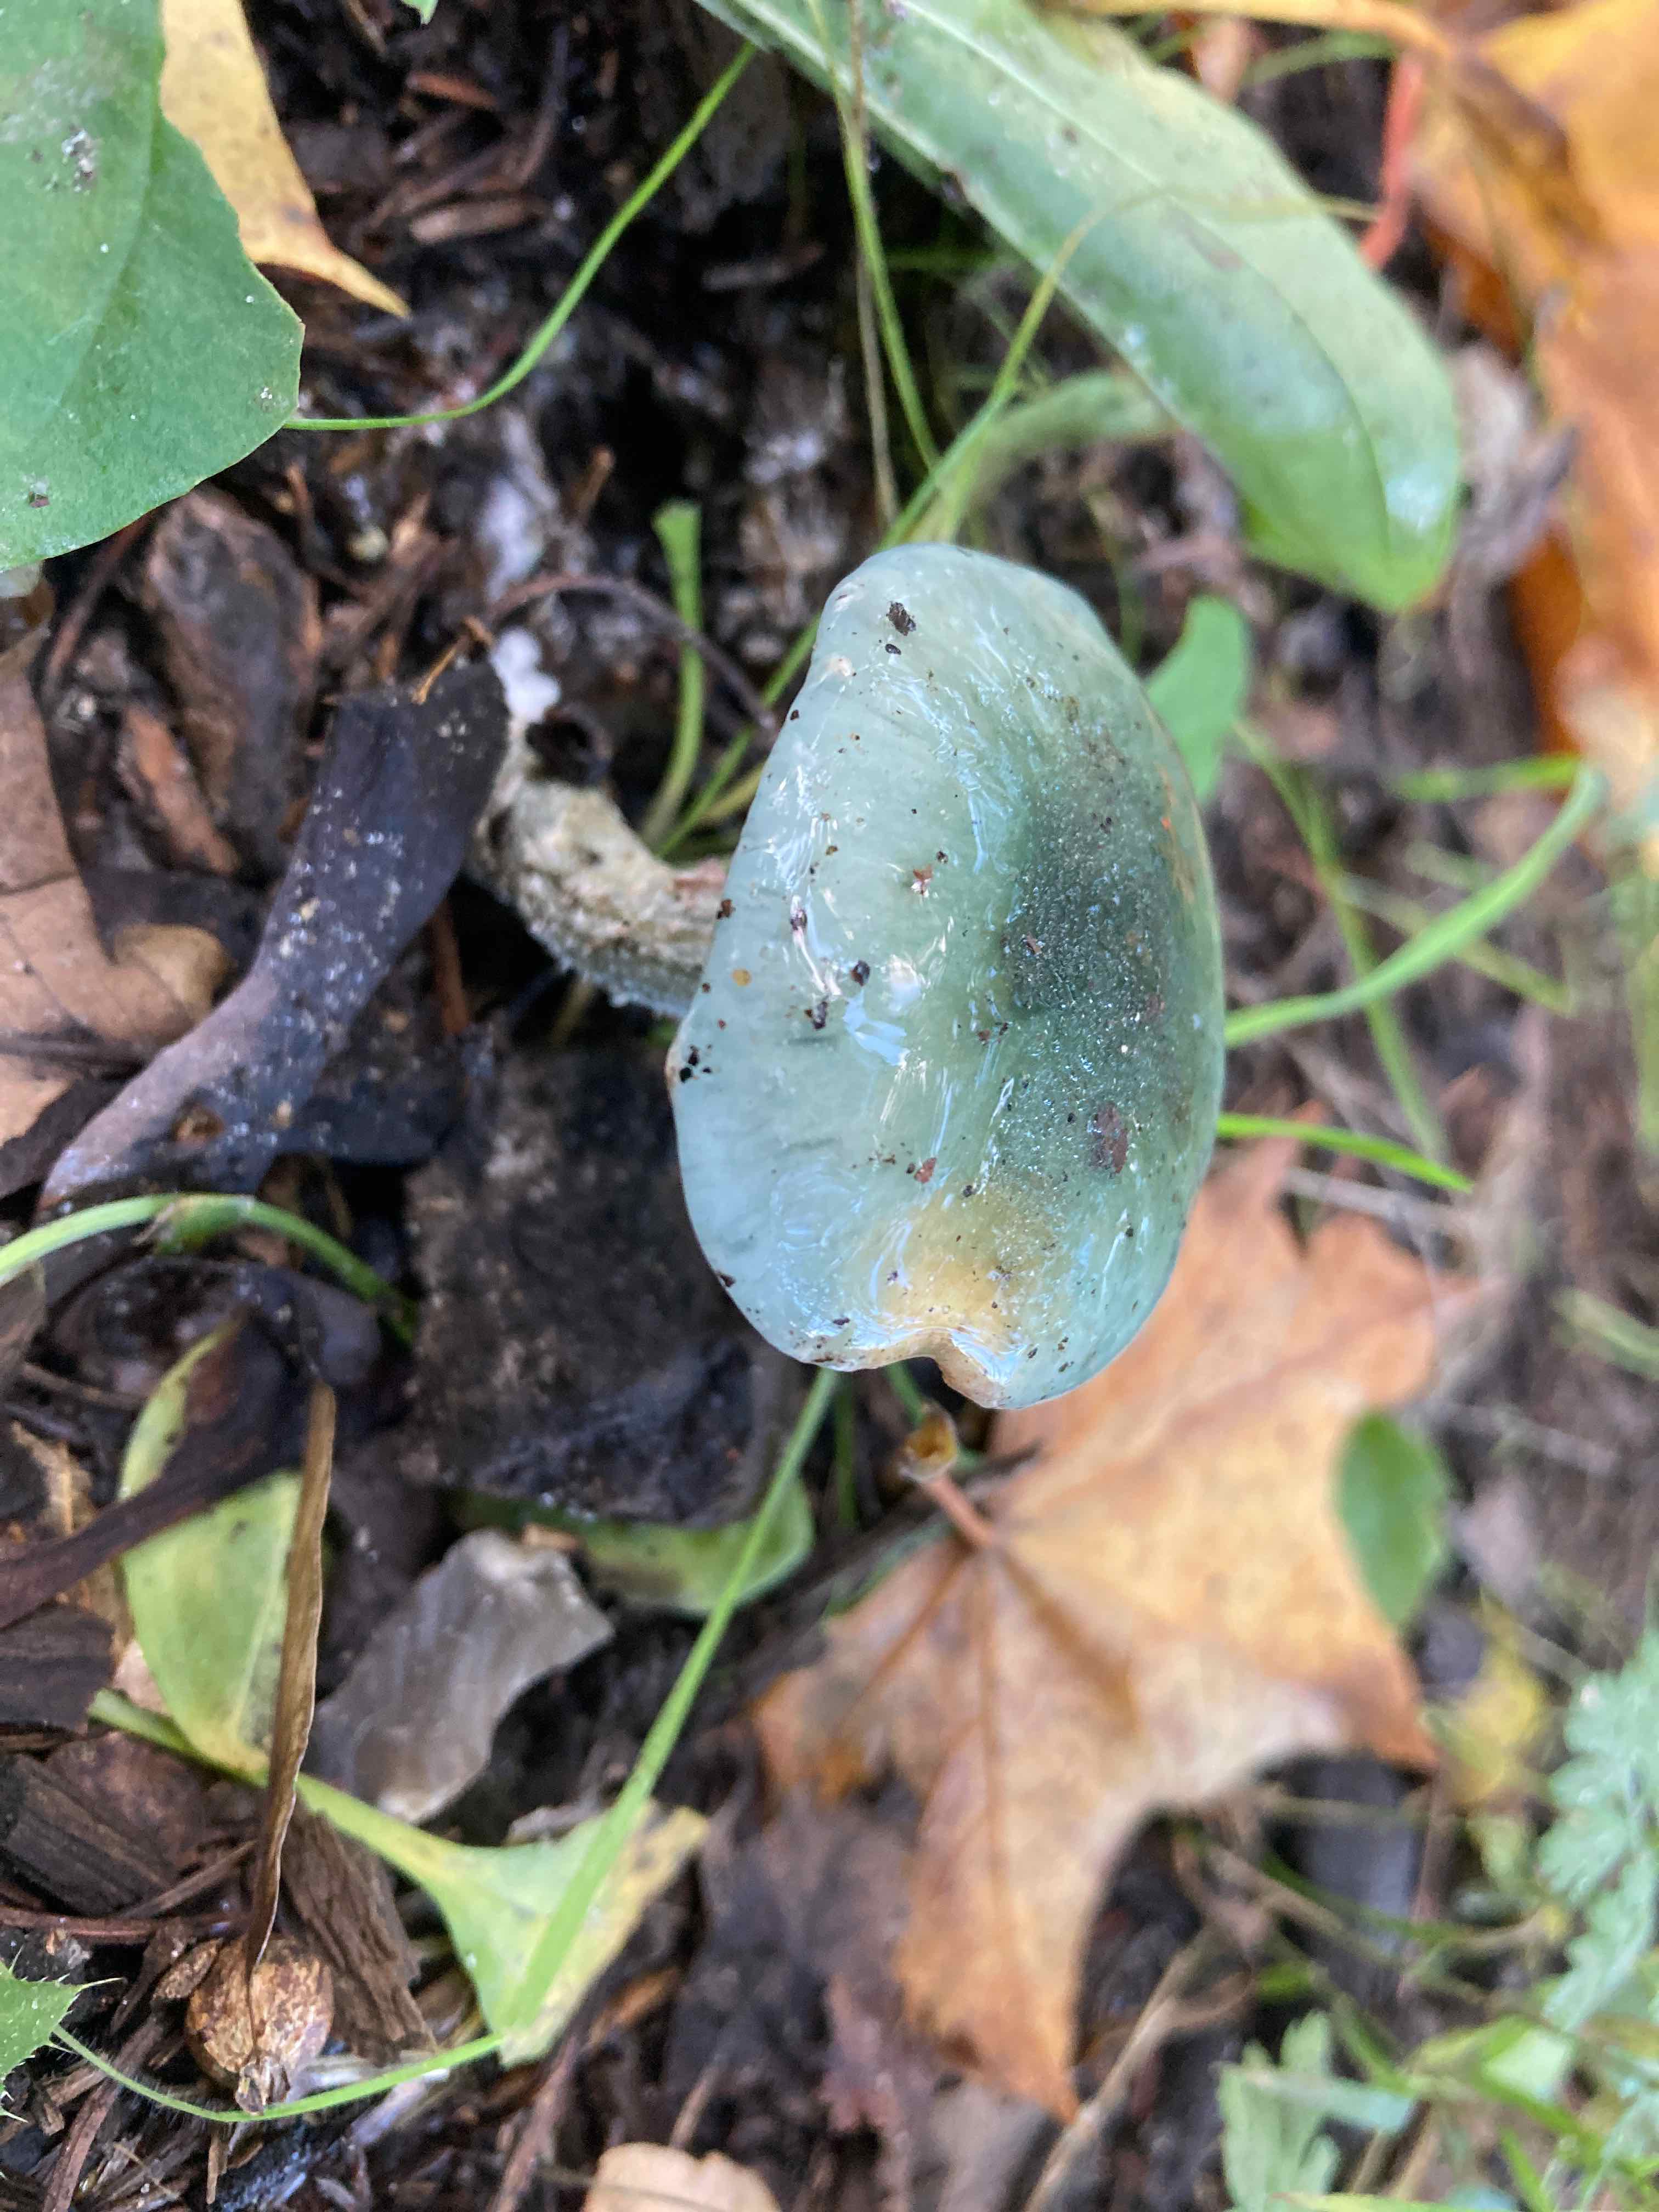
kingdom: Fungi
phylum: Basidiomycota
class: Agaricomycetes
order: Agaricales
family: Strophariaceae
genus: Stropharia
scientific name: Stropharia cyanea
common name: blågrøn bredblad
